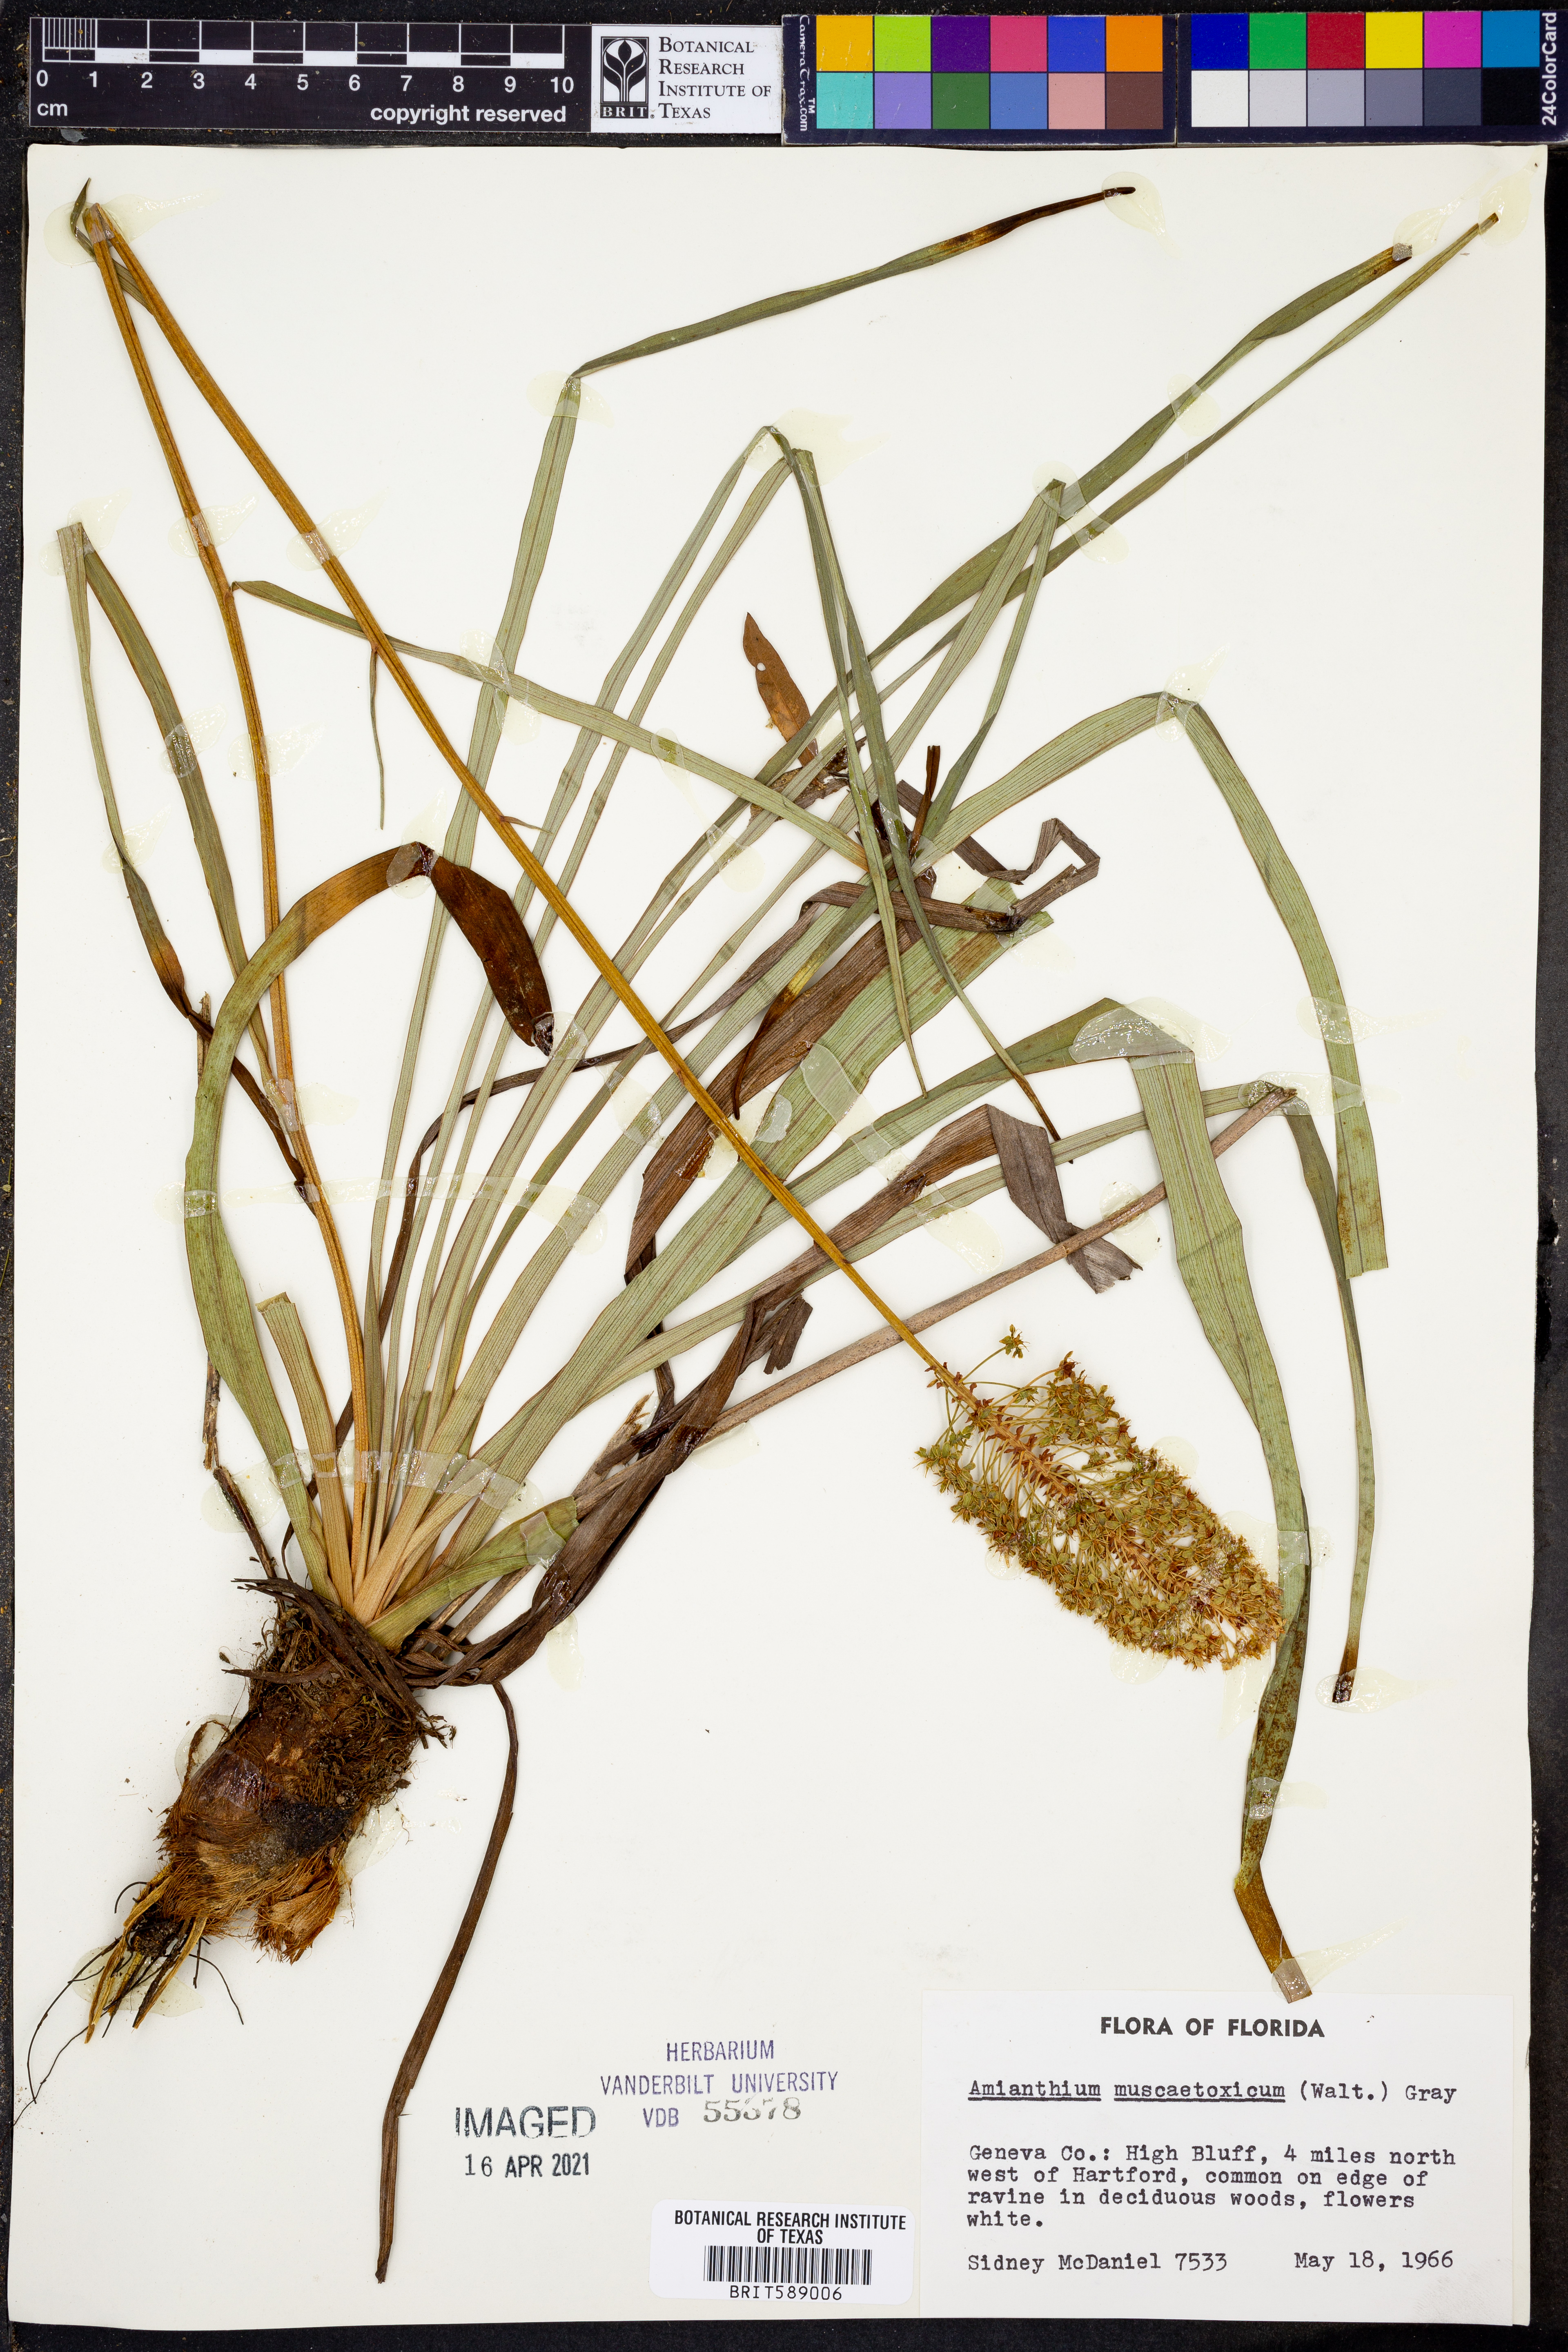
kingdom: Plantae
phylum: Tracheophyta
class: Liliopsida
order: Liliales
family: Melanthiaceae
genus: Amianthium
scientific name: Amianthium muscitoxicum
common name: Fly-poison
